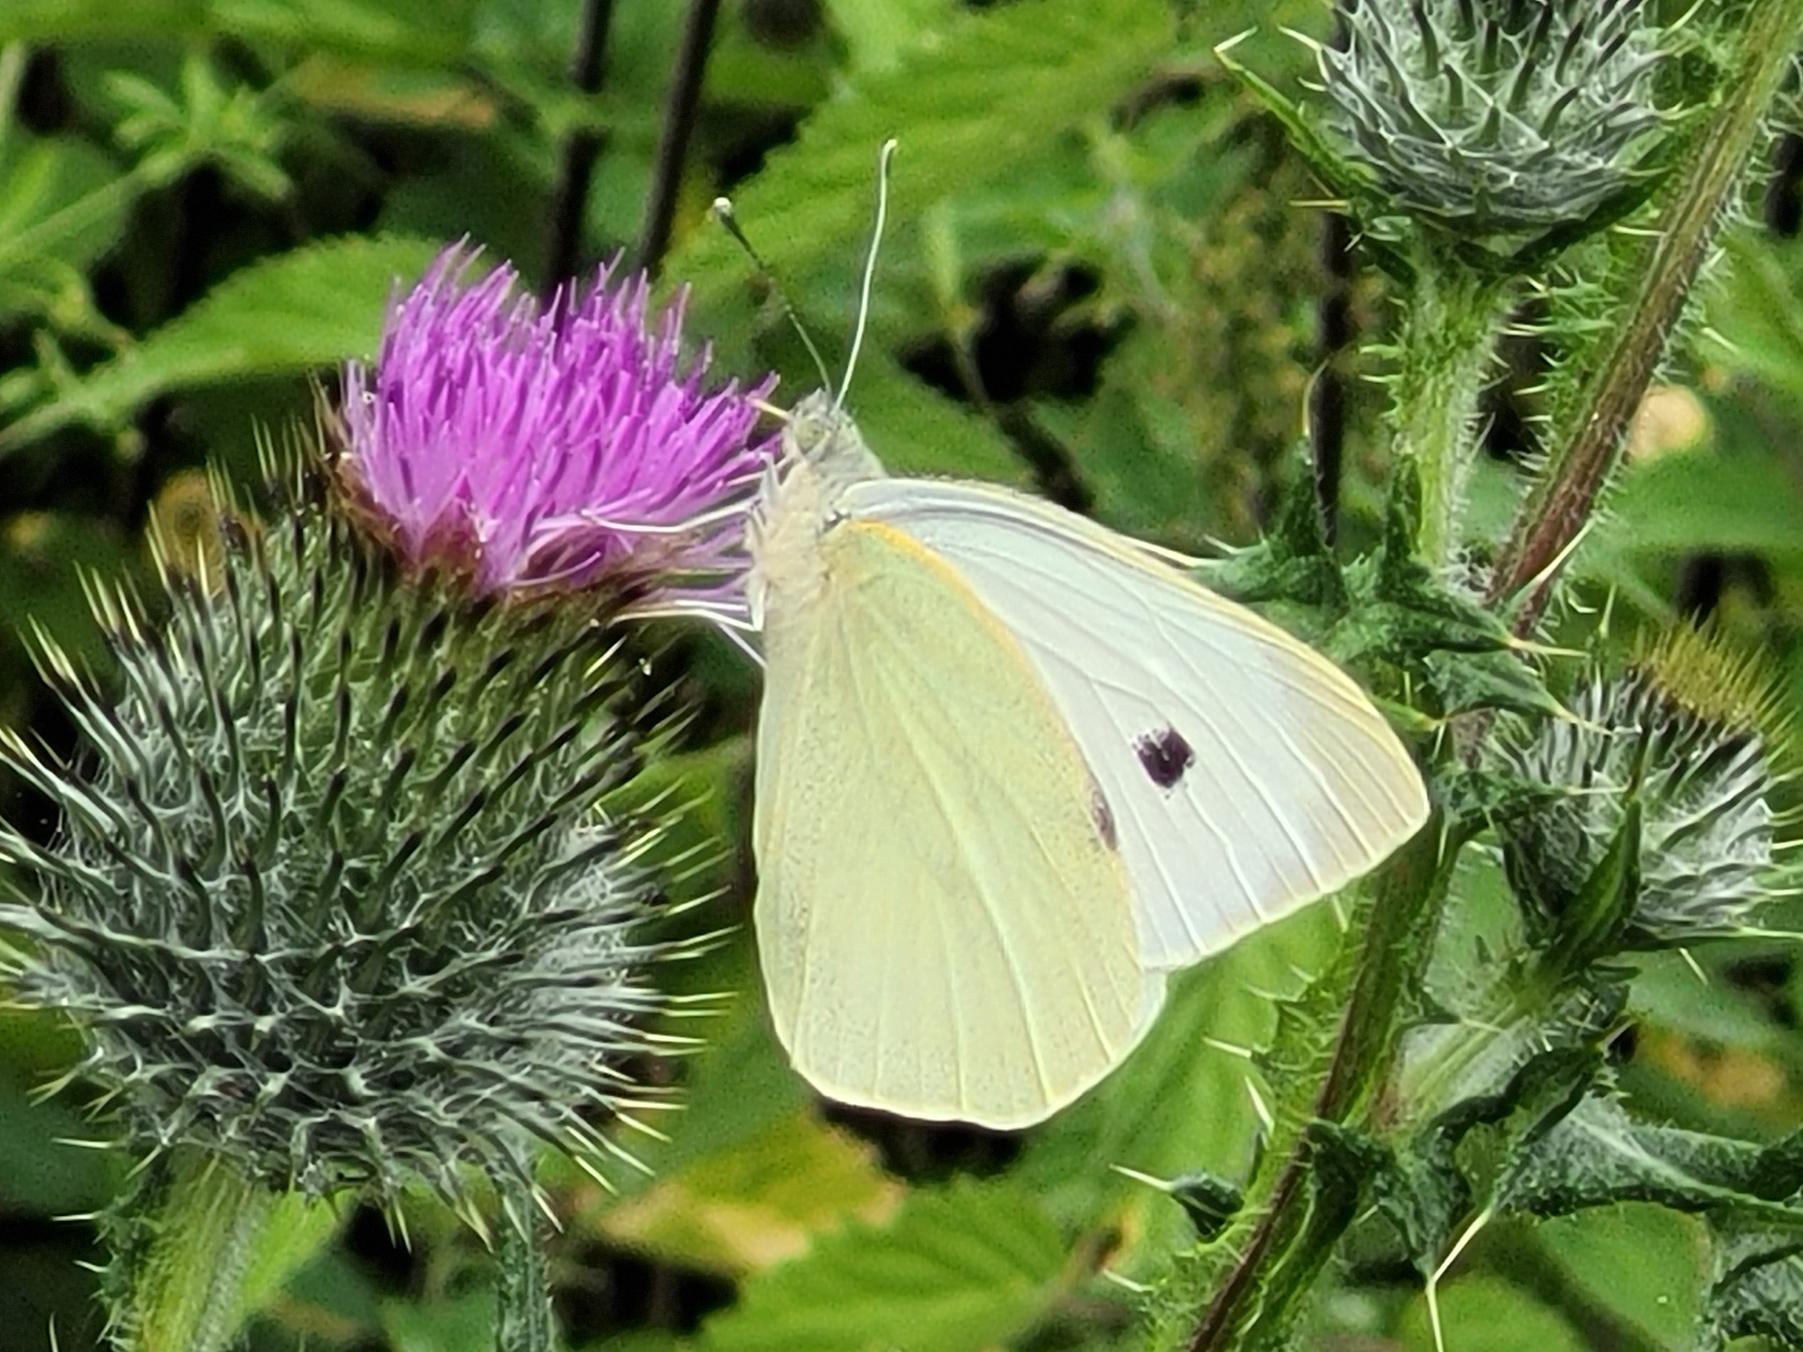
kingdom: Animalia
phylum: Arthropoda
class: Insecta
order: Lepidoptera
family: Pieridae
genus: Pieris
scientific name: Pieris brassicae
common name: Stor kålsommerfugl
